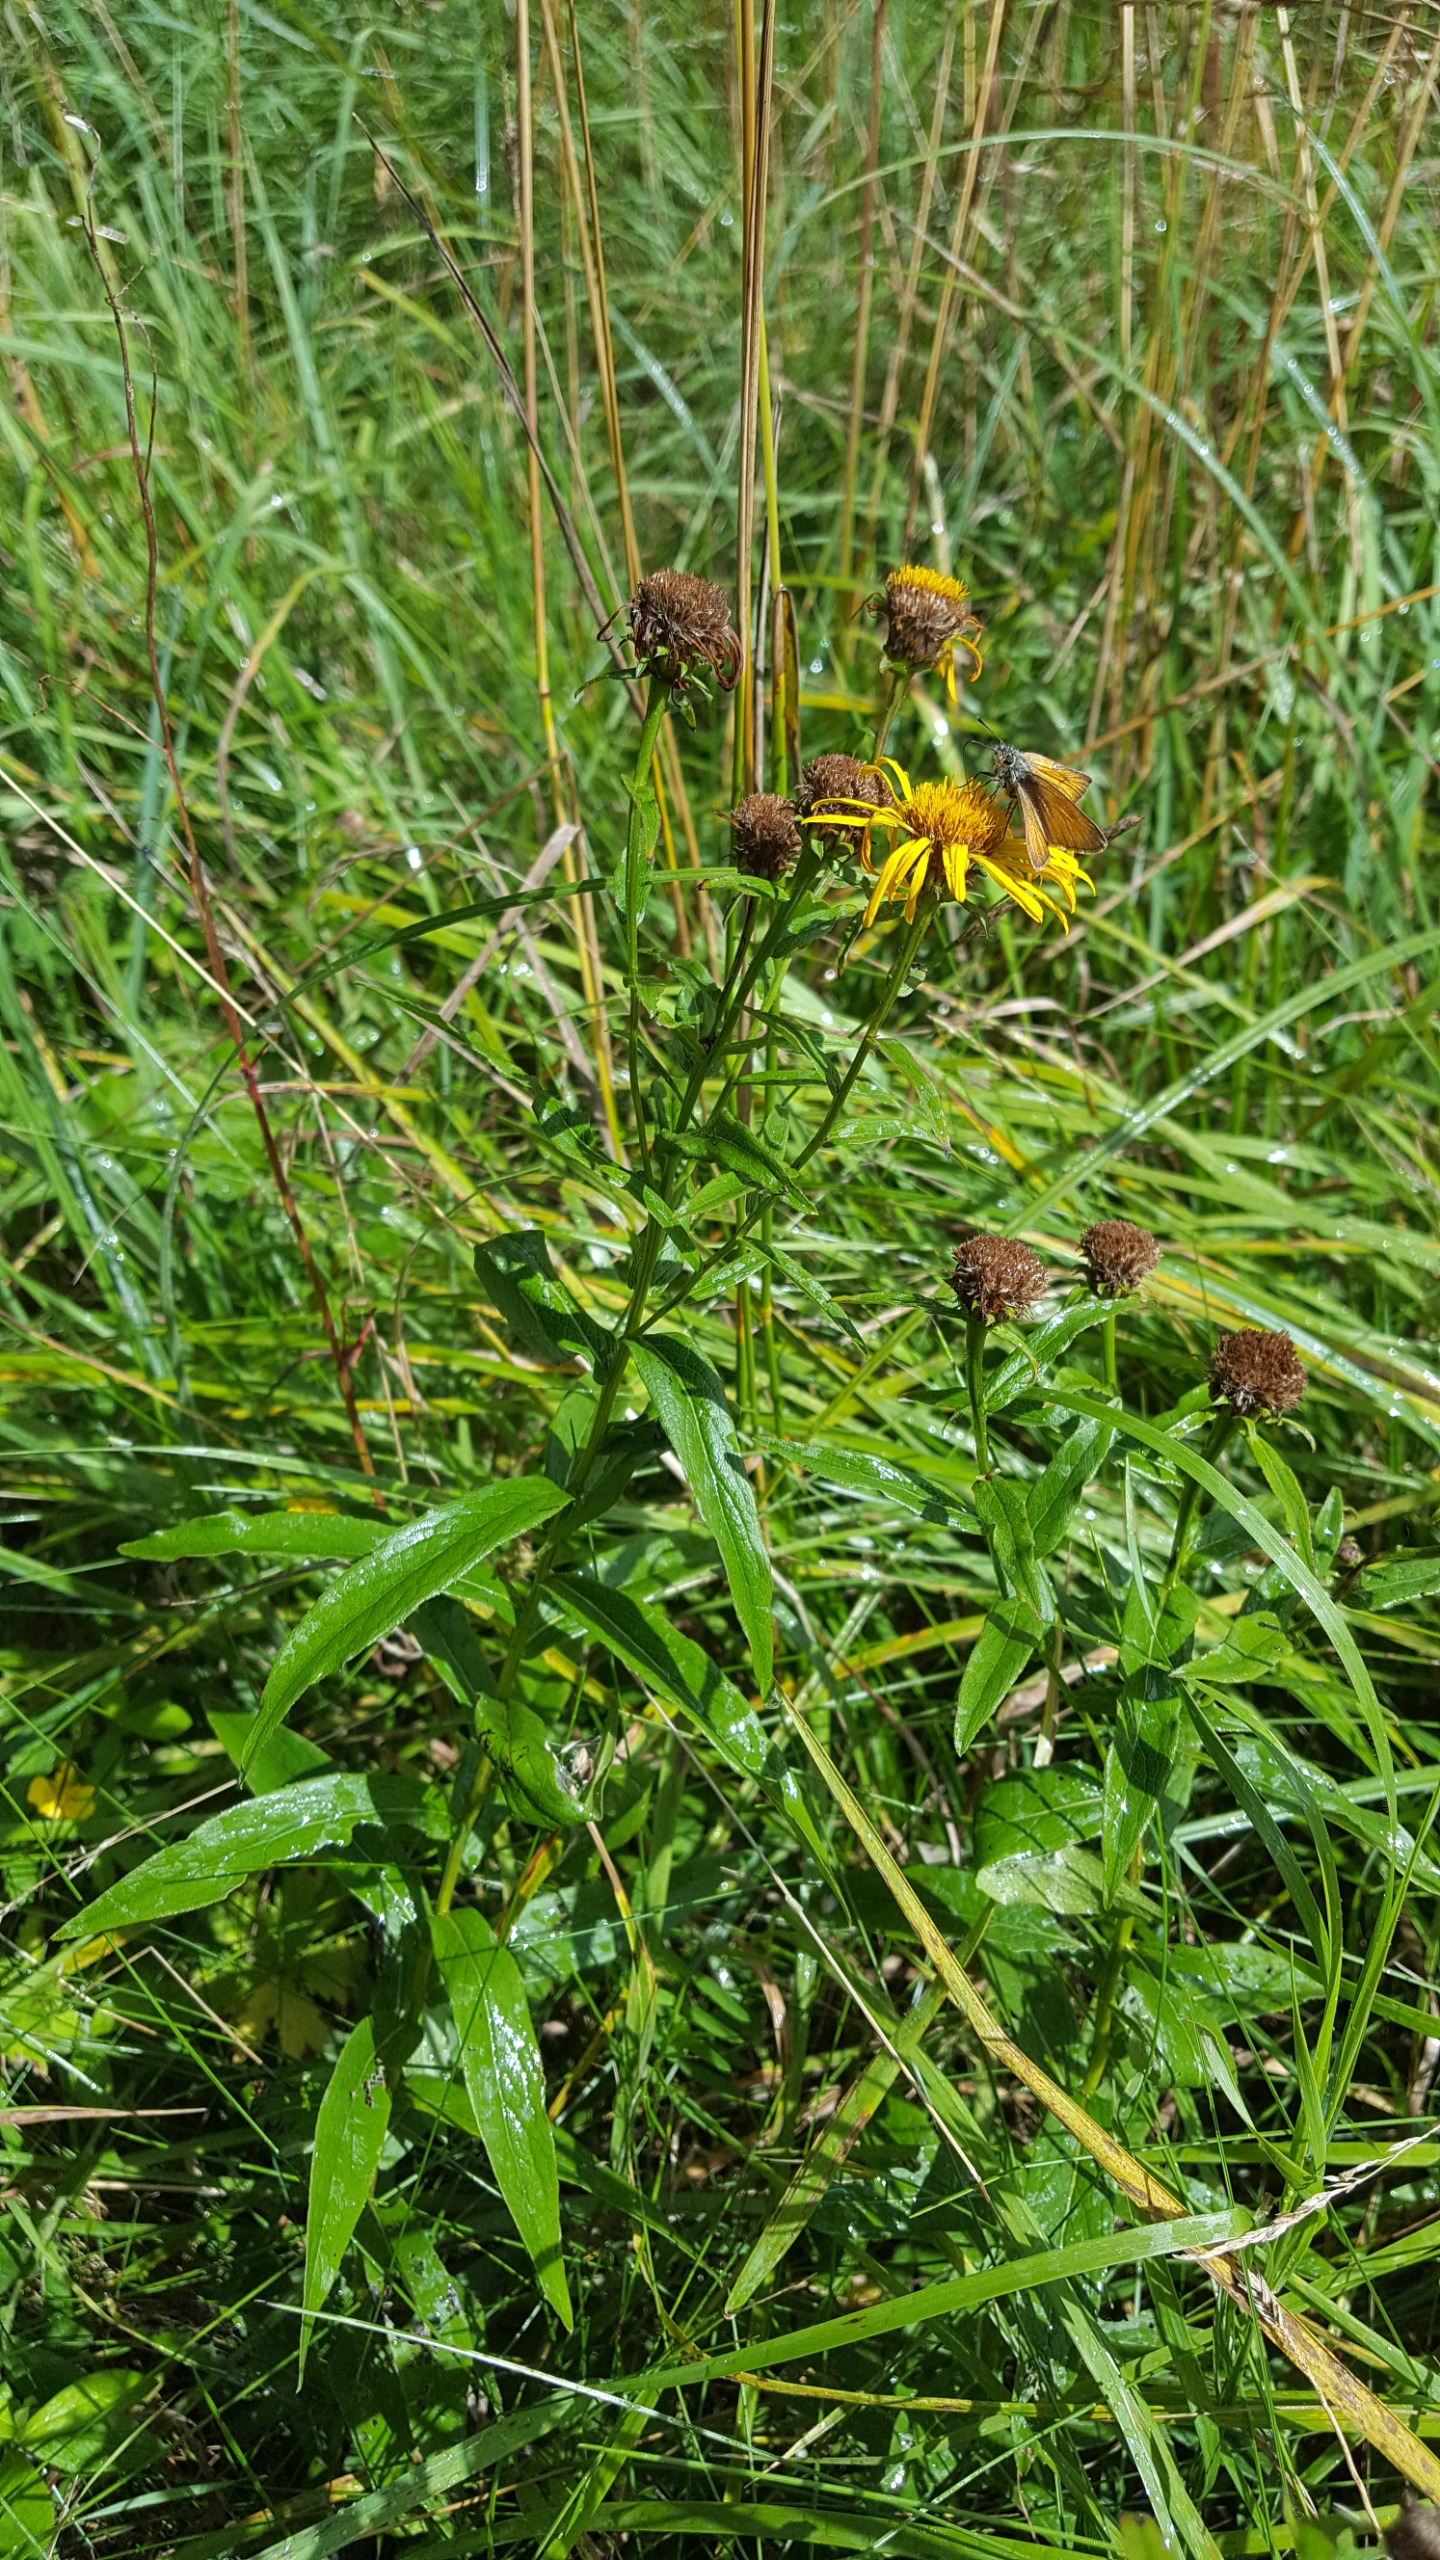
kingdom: Plantae
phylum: Tracheophyta
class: Magnoliopsida
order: Asterales
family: Asteraceae
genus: Pentanema
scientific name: Pentanema salicinum
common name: Pile-alant
